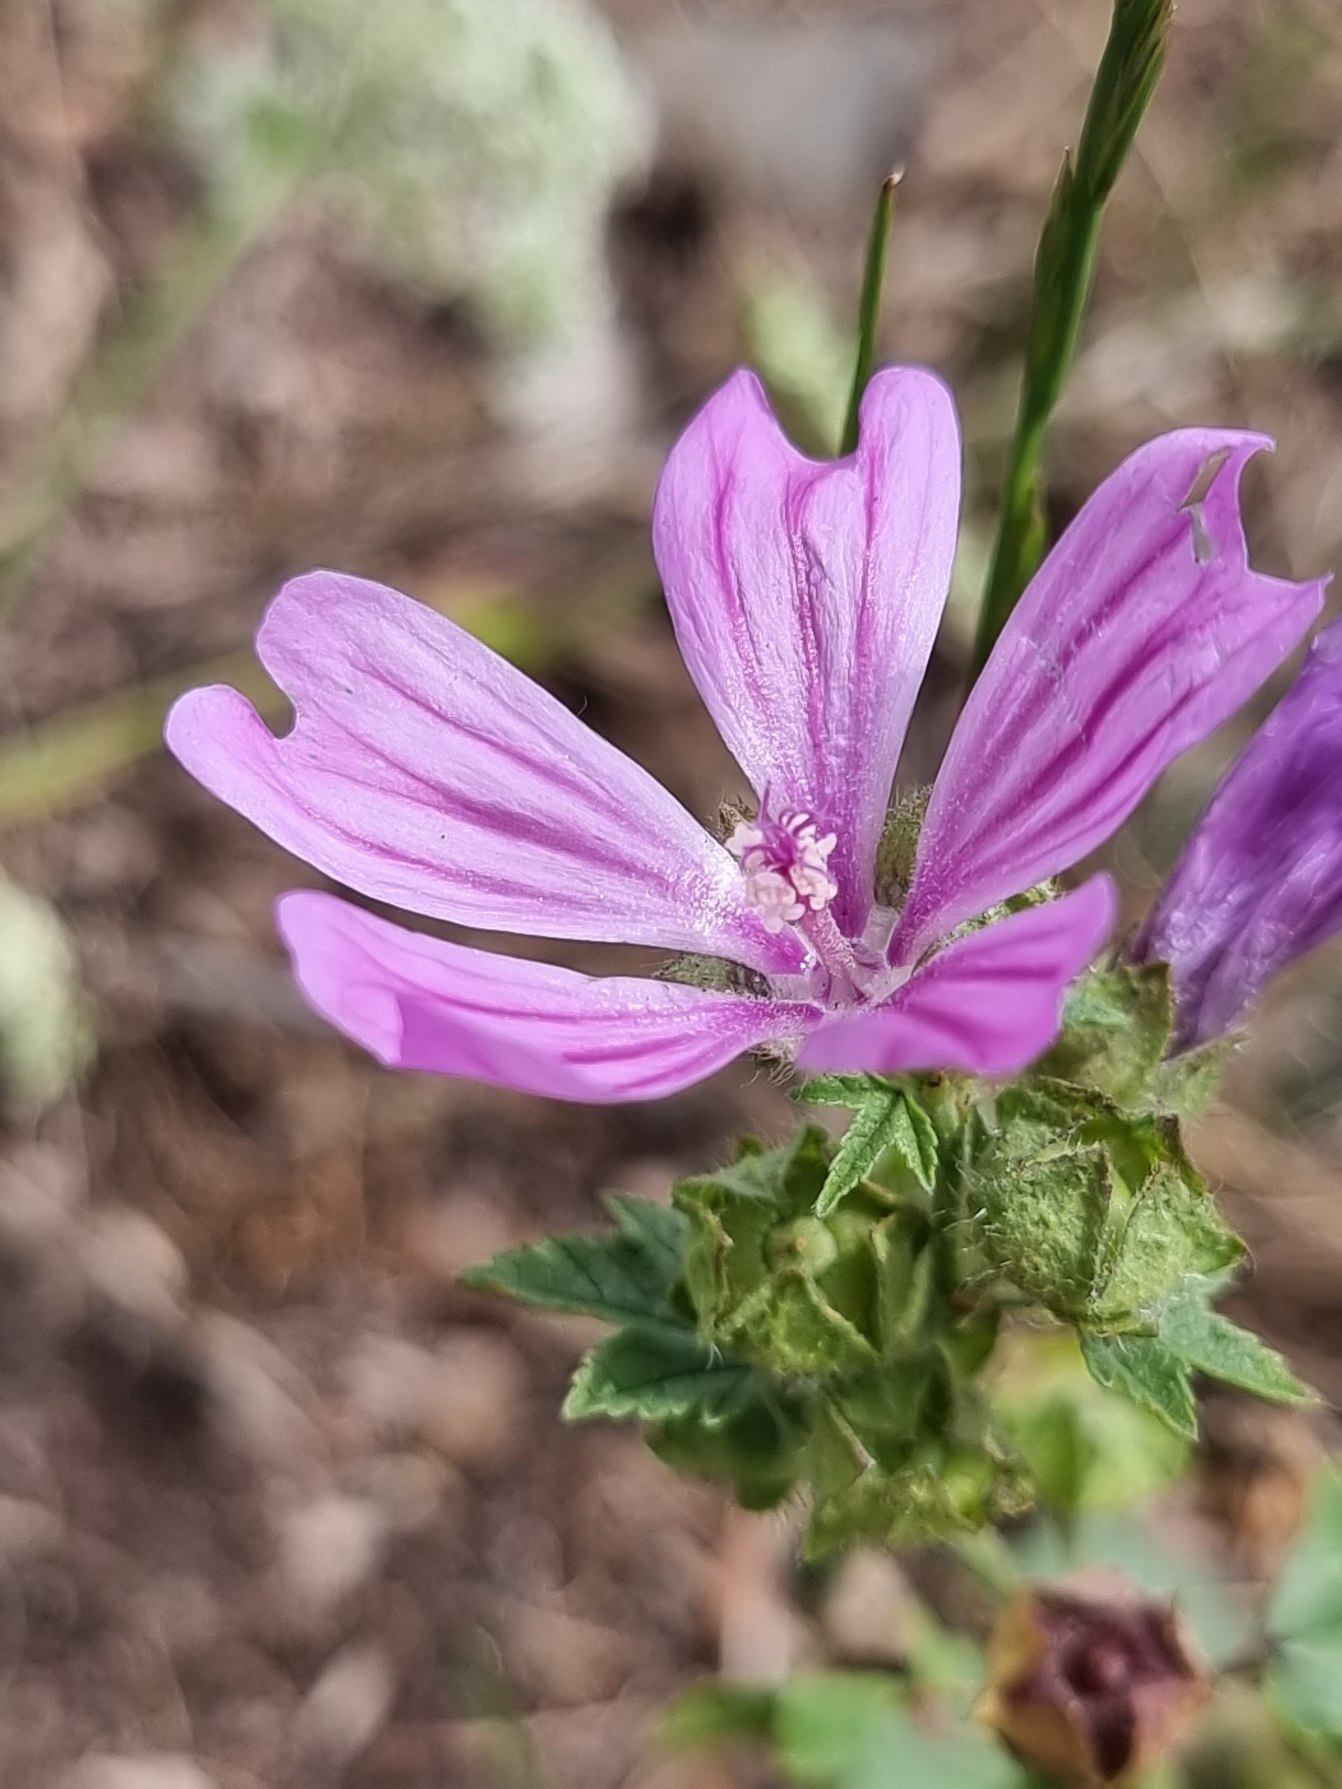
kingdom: Plantae
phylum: Tracheophyta
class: Magnoliopsida
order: Malvales
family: Malvaceae
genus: Malva
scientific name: Malva sylvestris
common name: Almindelig katost
